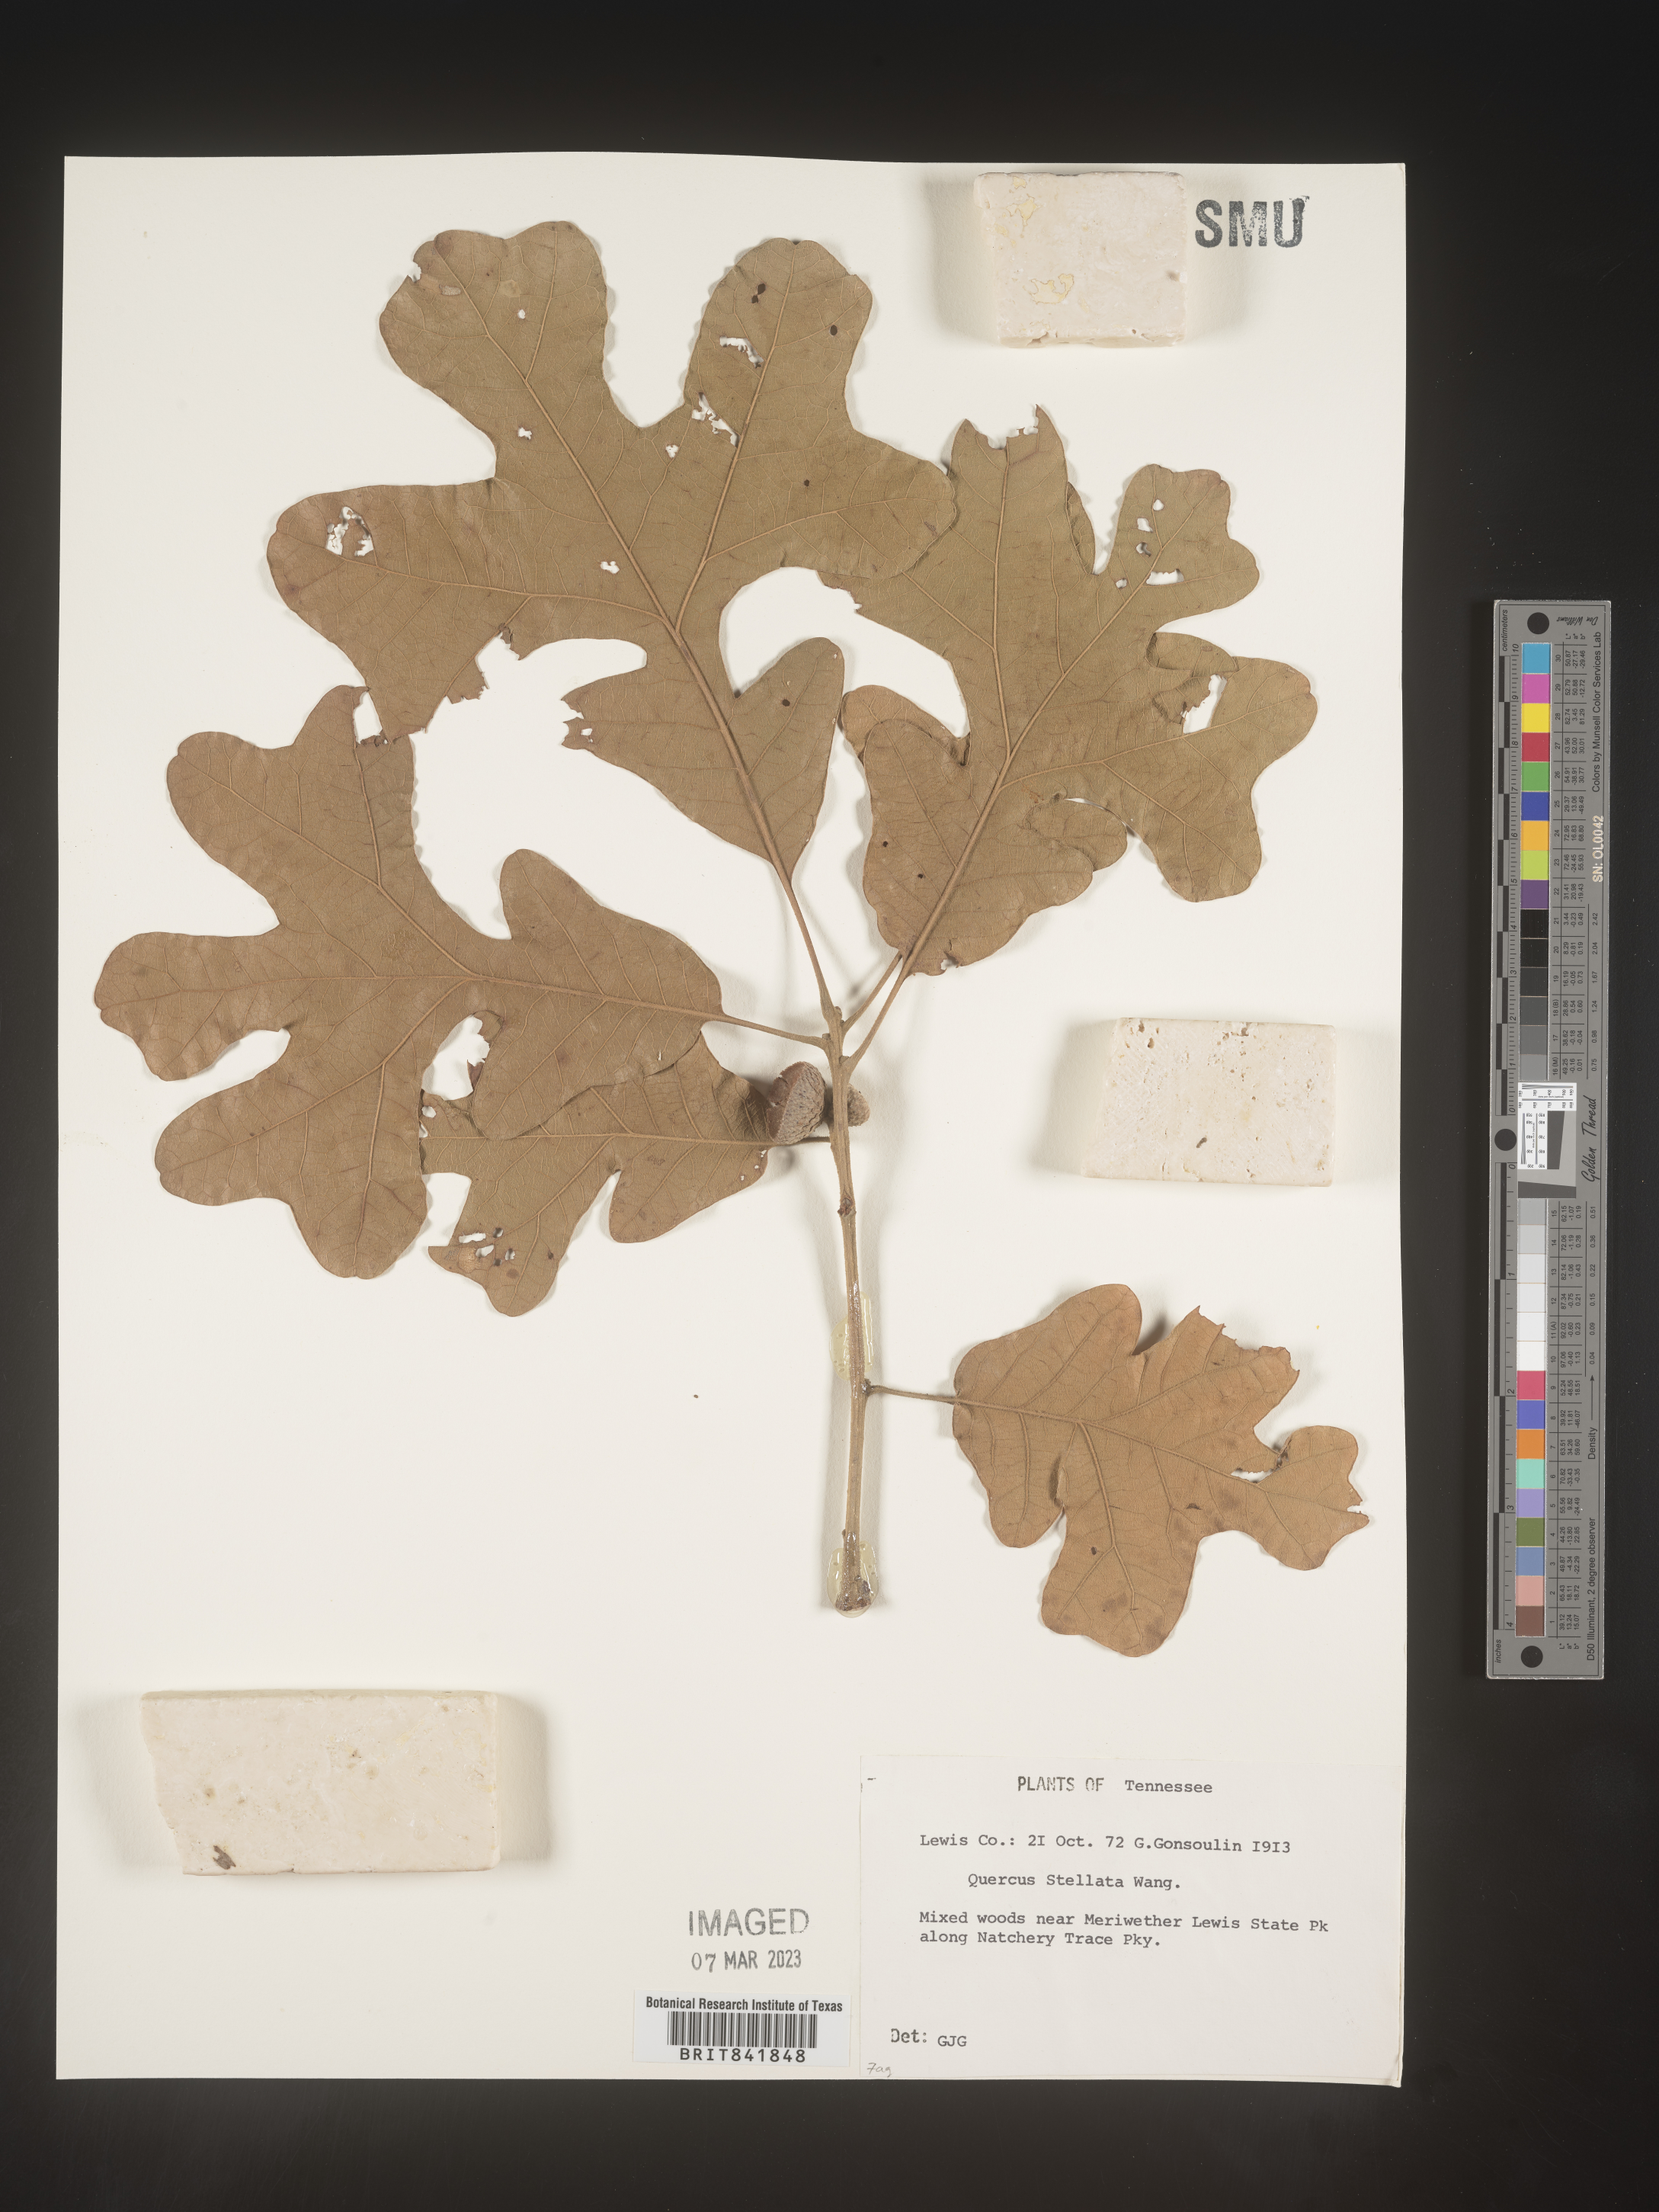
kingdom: Plantae
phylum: Tracheophyta
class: Magnoliopsida
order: Fagales
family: Fagaceae
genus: Quercus
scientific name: Quercus stellata
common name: Post oak
